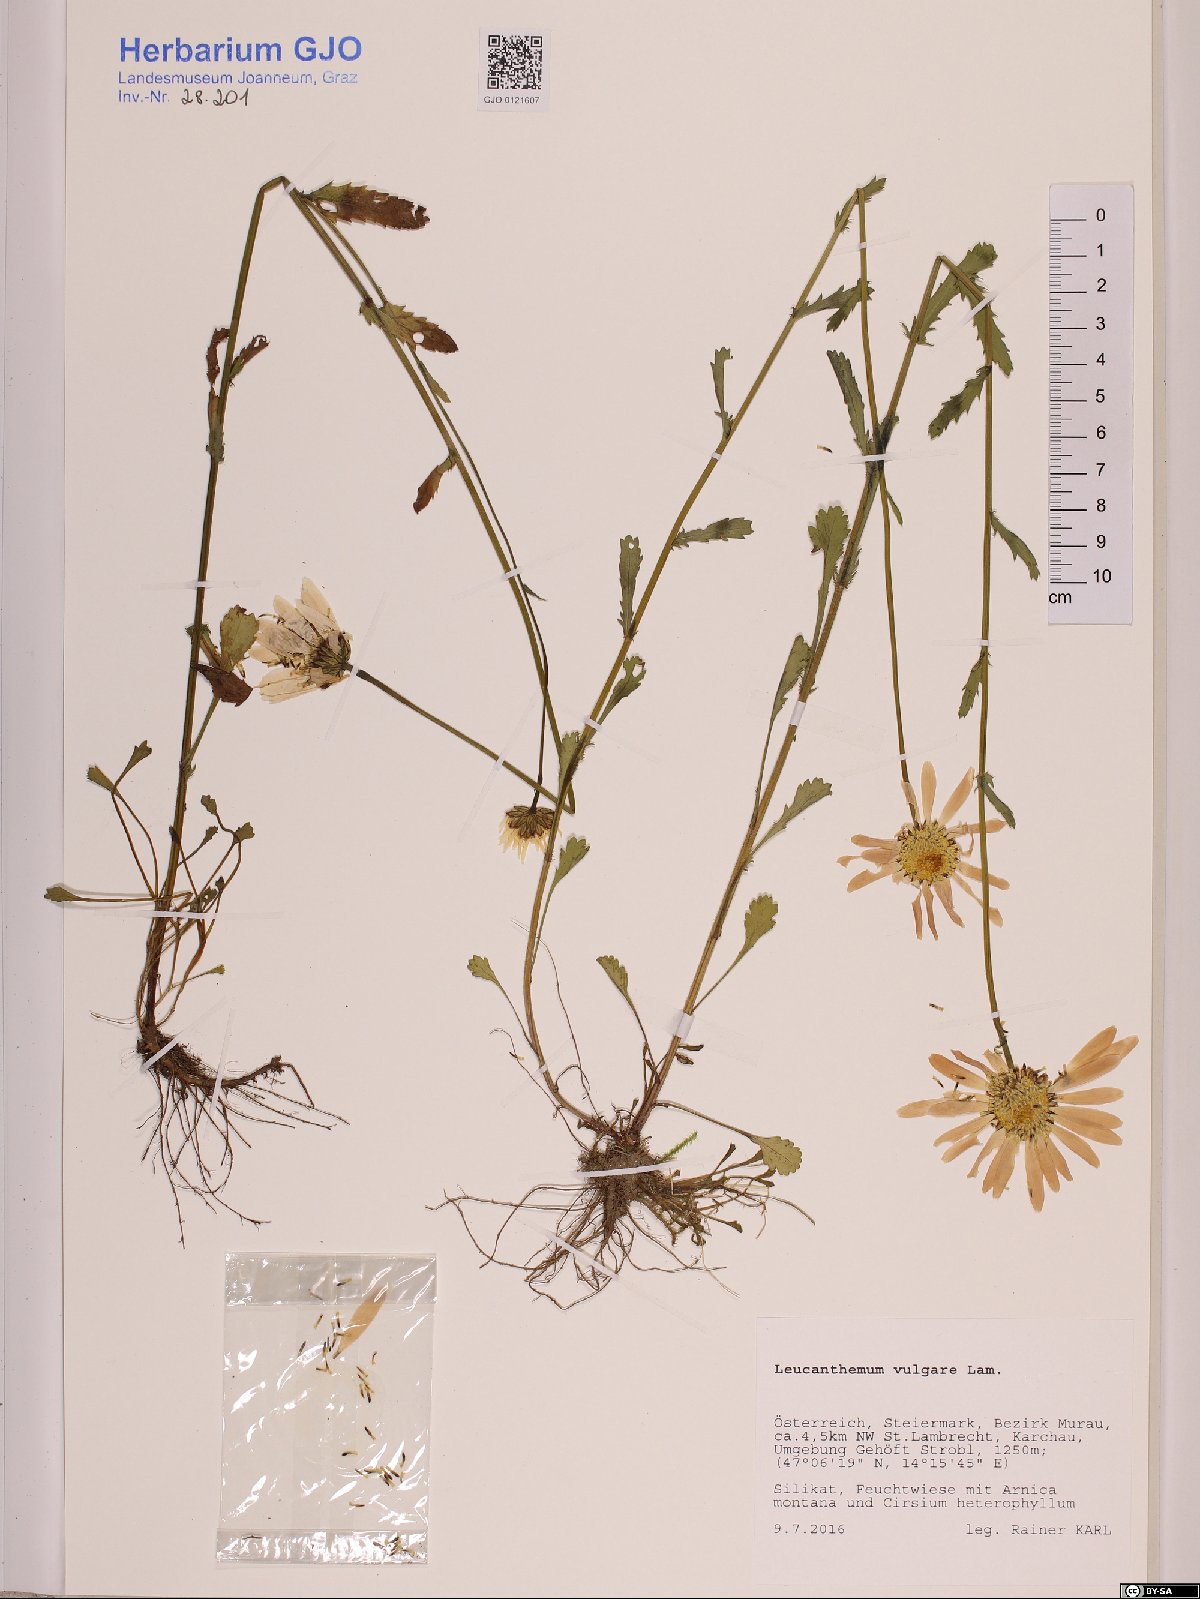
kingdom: Plantae
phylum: Tracheophyta
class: Magnoliopsida
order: Asterales
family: Asteraceae
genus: Leucanthemum
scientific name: Leucanthemum vulgare
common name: Oxeye daisy
